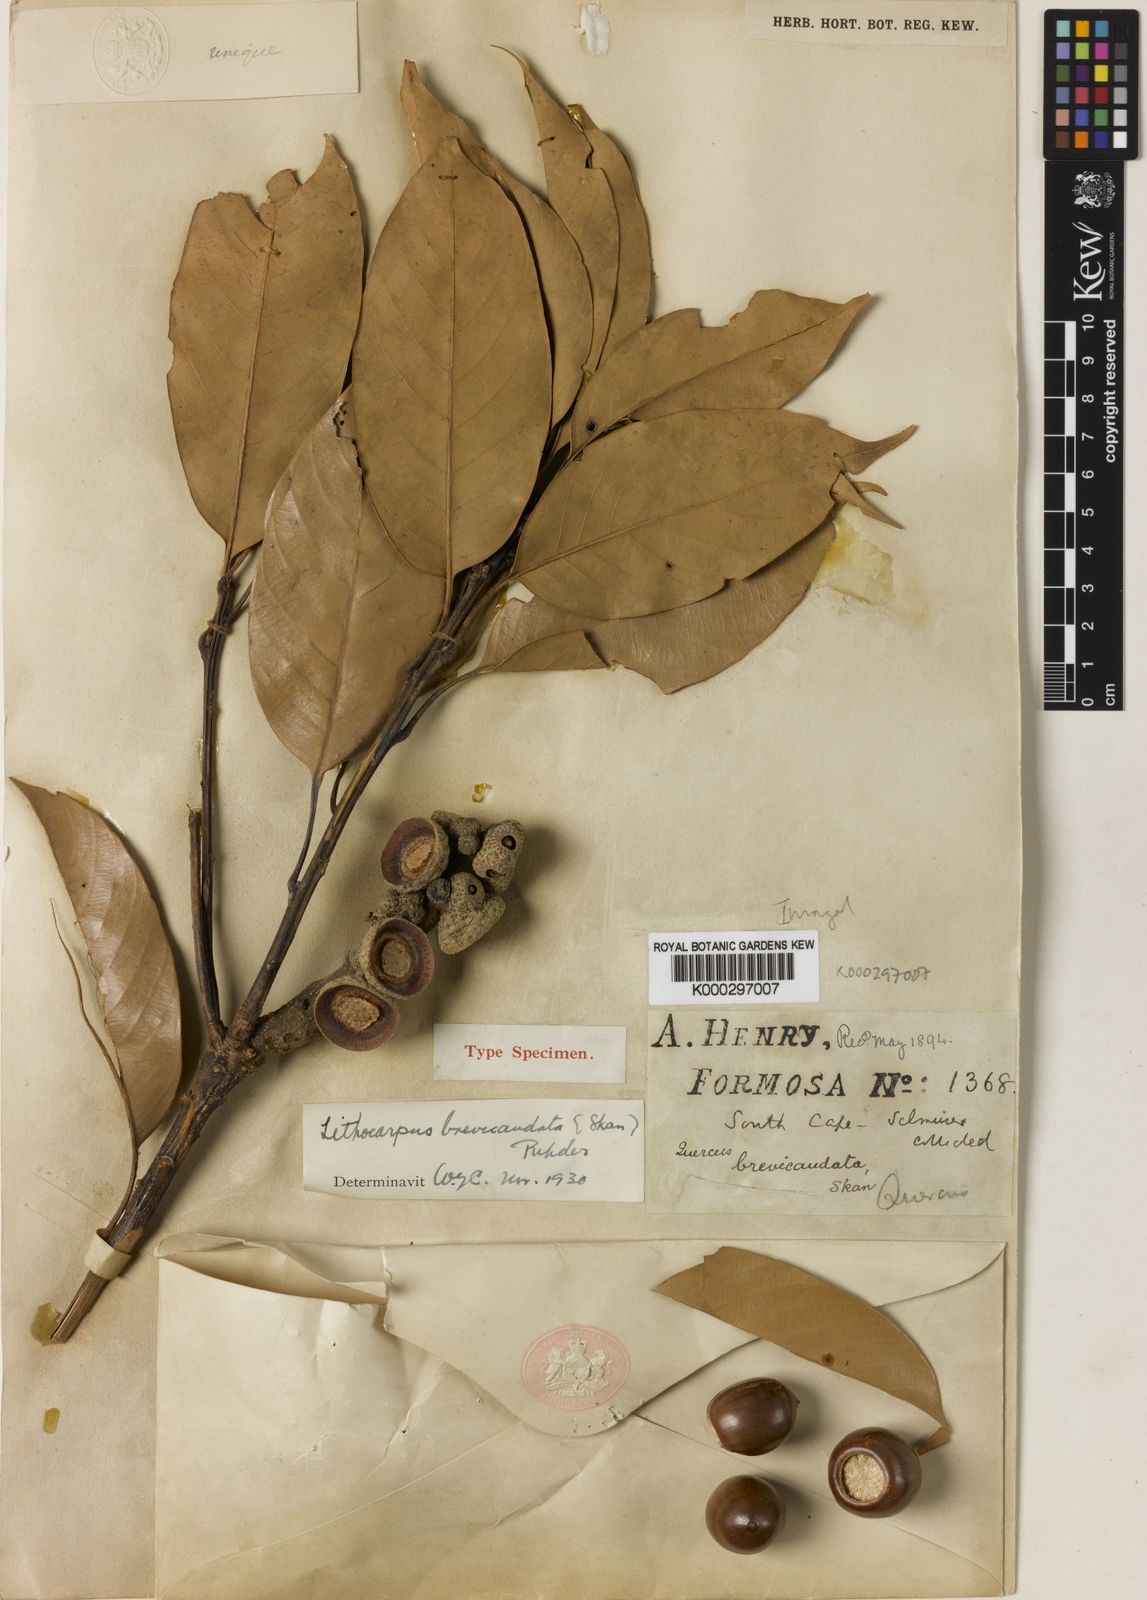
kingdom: Plantae
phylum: Tracheophyta
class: Magnoliopsida
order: Fagales
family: Fagaceae
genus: Lithocarpus
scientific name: Lithocarpus brevicaudatus
